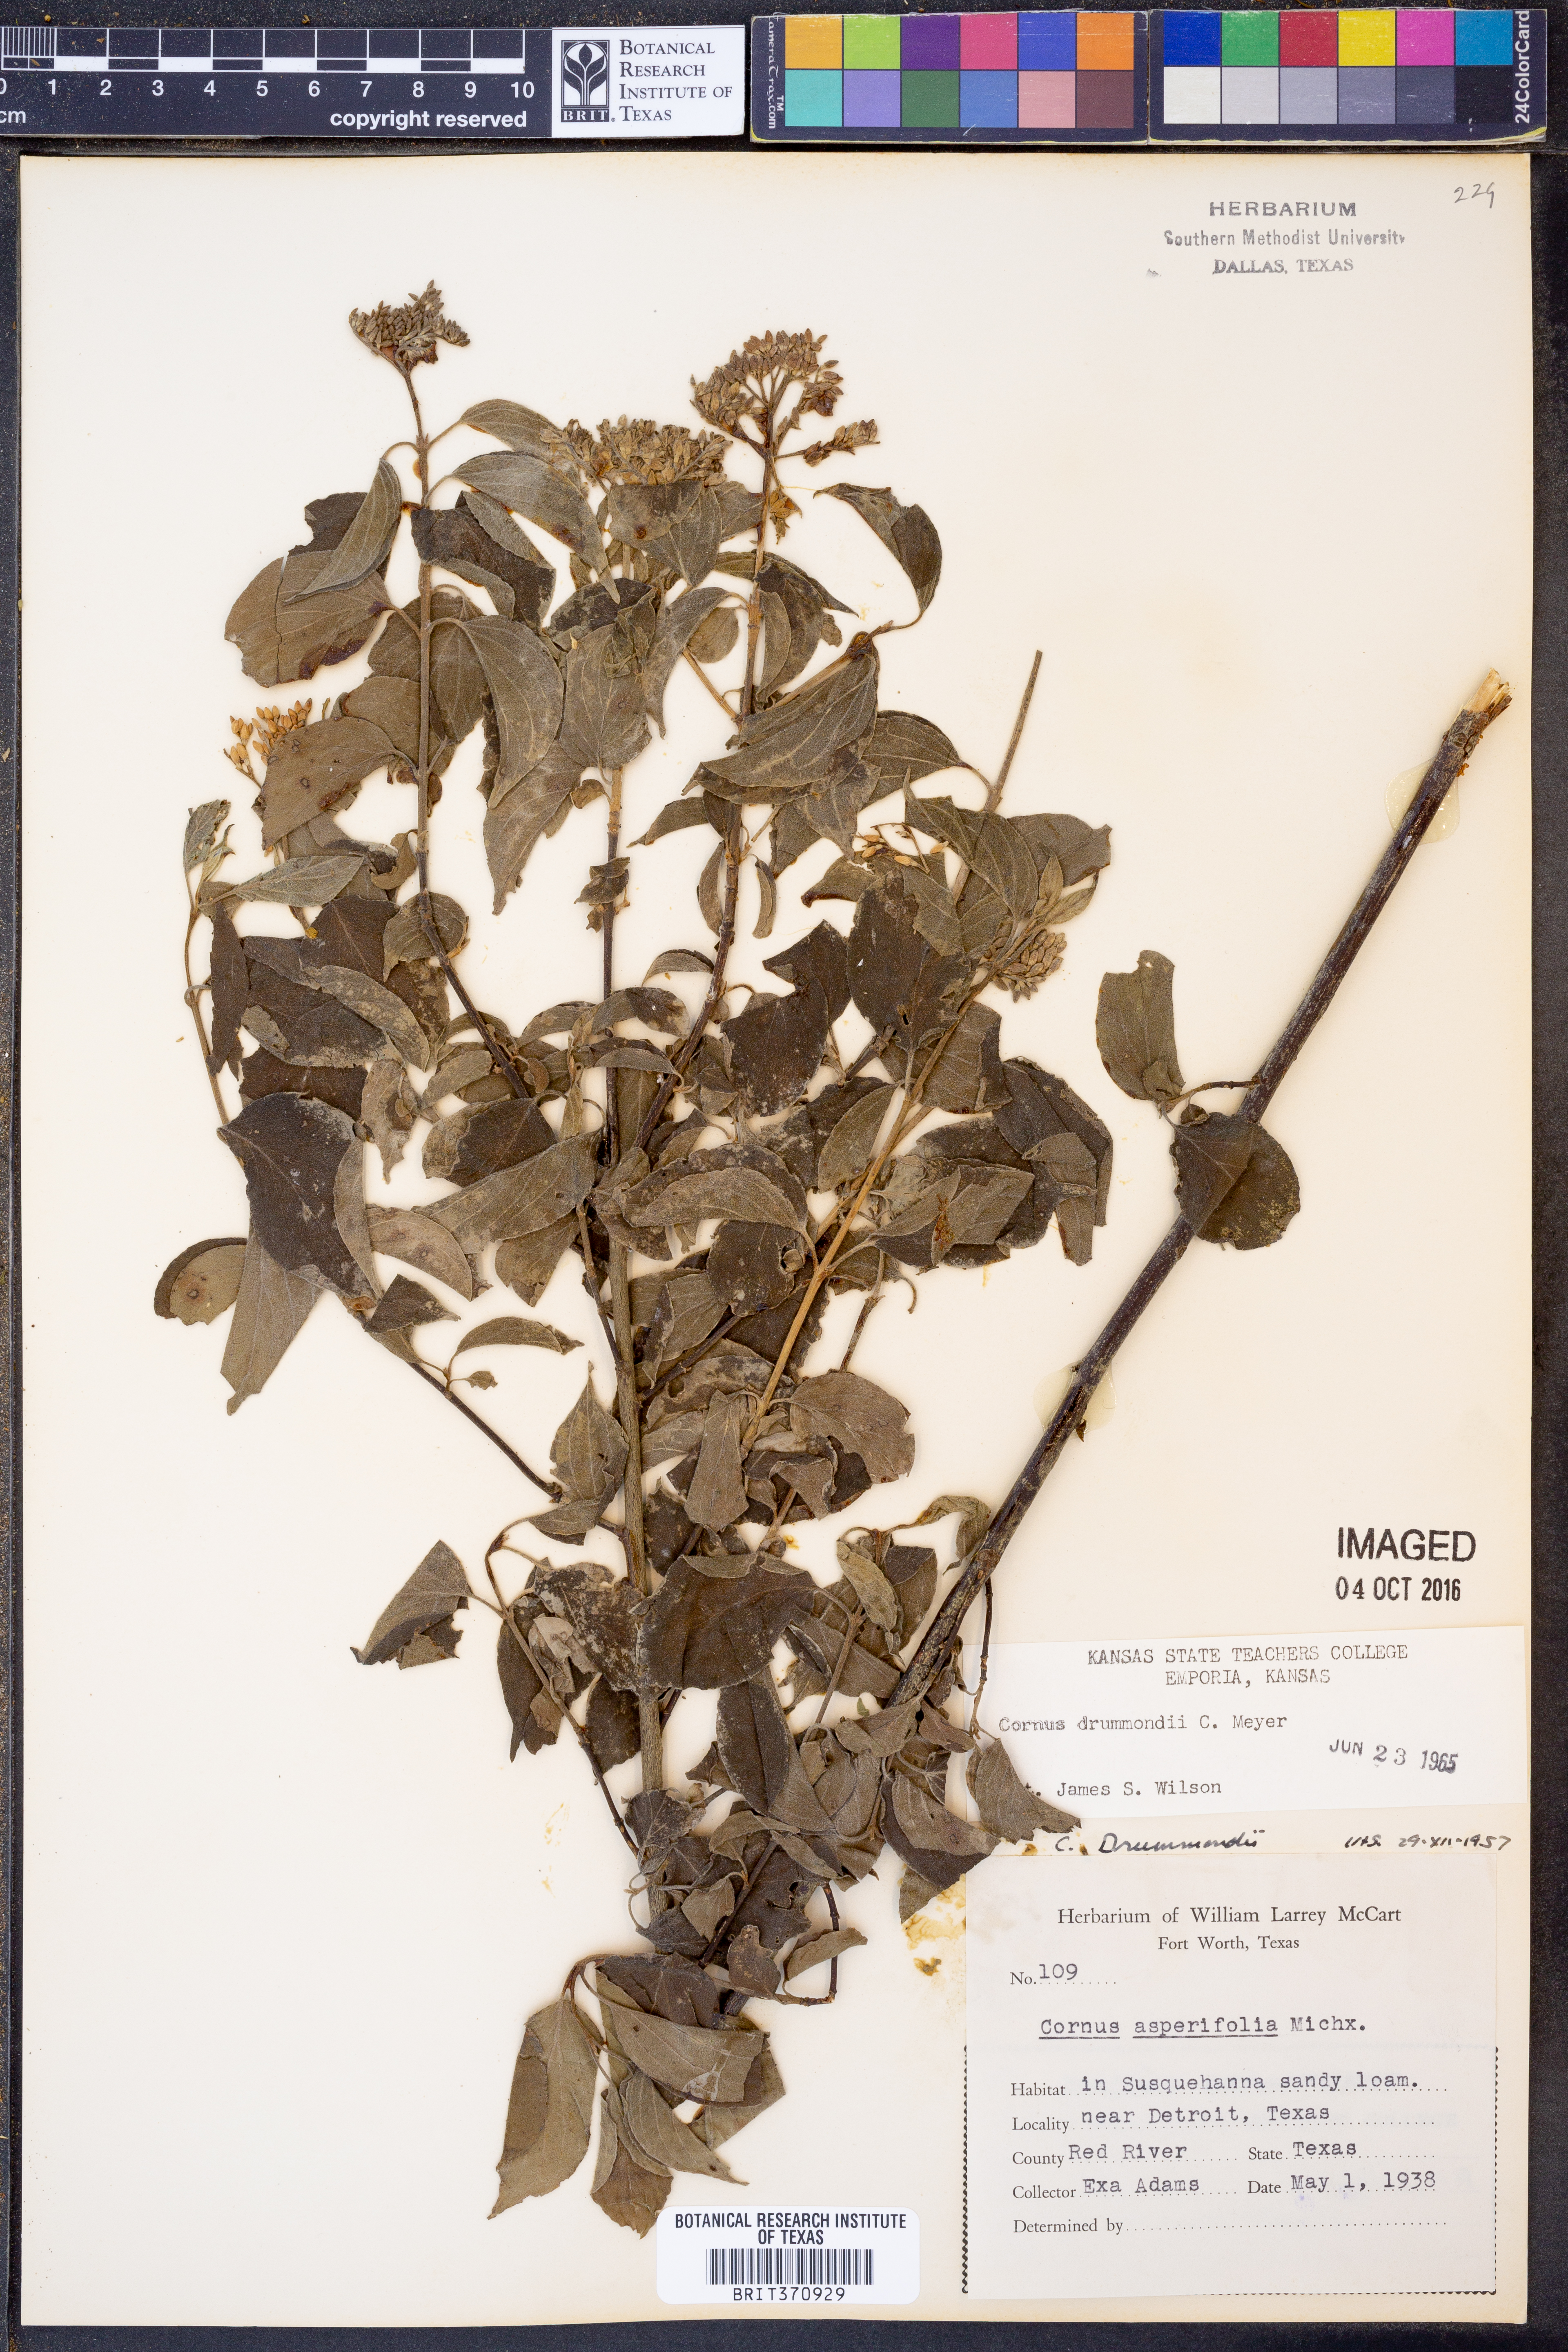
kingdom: Plantae
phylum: Tracheophyta
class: Magnoliopsida
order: Cornales
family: Cornaceae
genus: Cornus
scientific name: Cornus drummondii
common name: Rough-leaf dogwood
